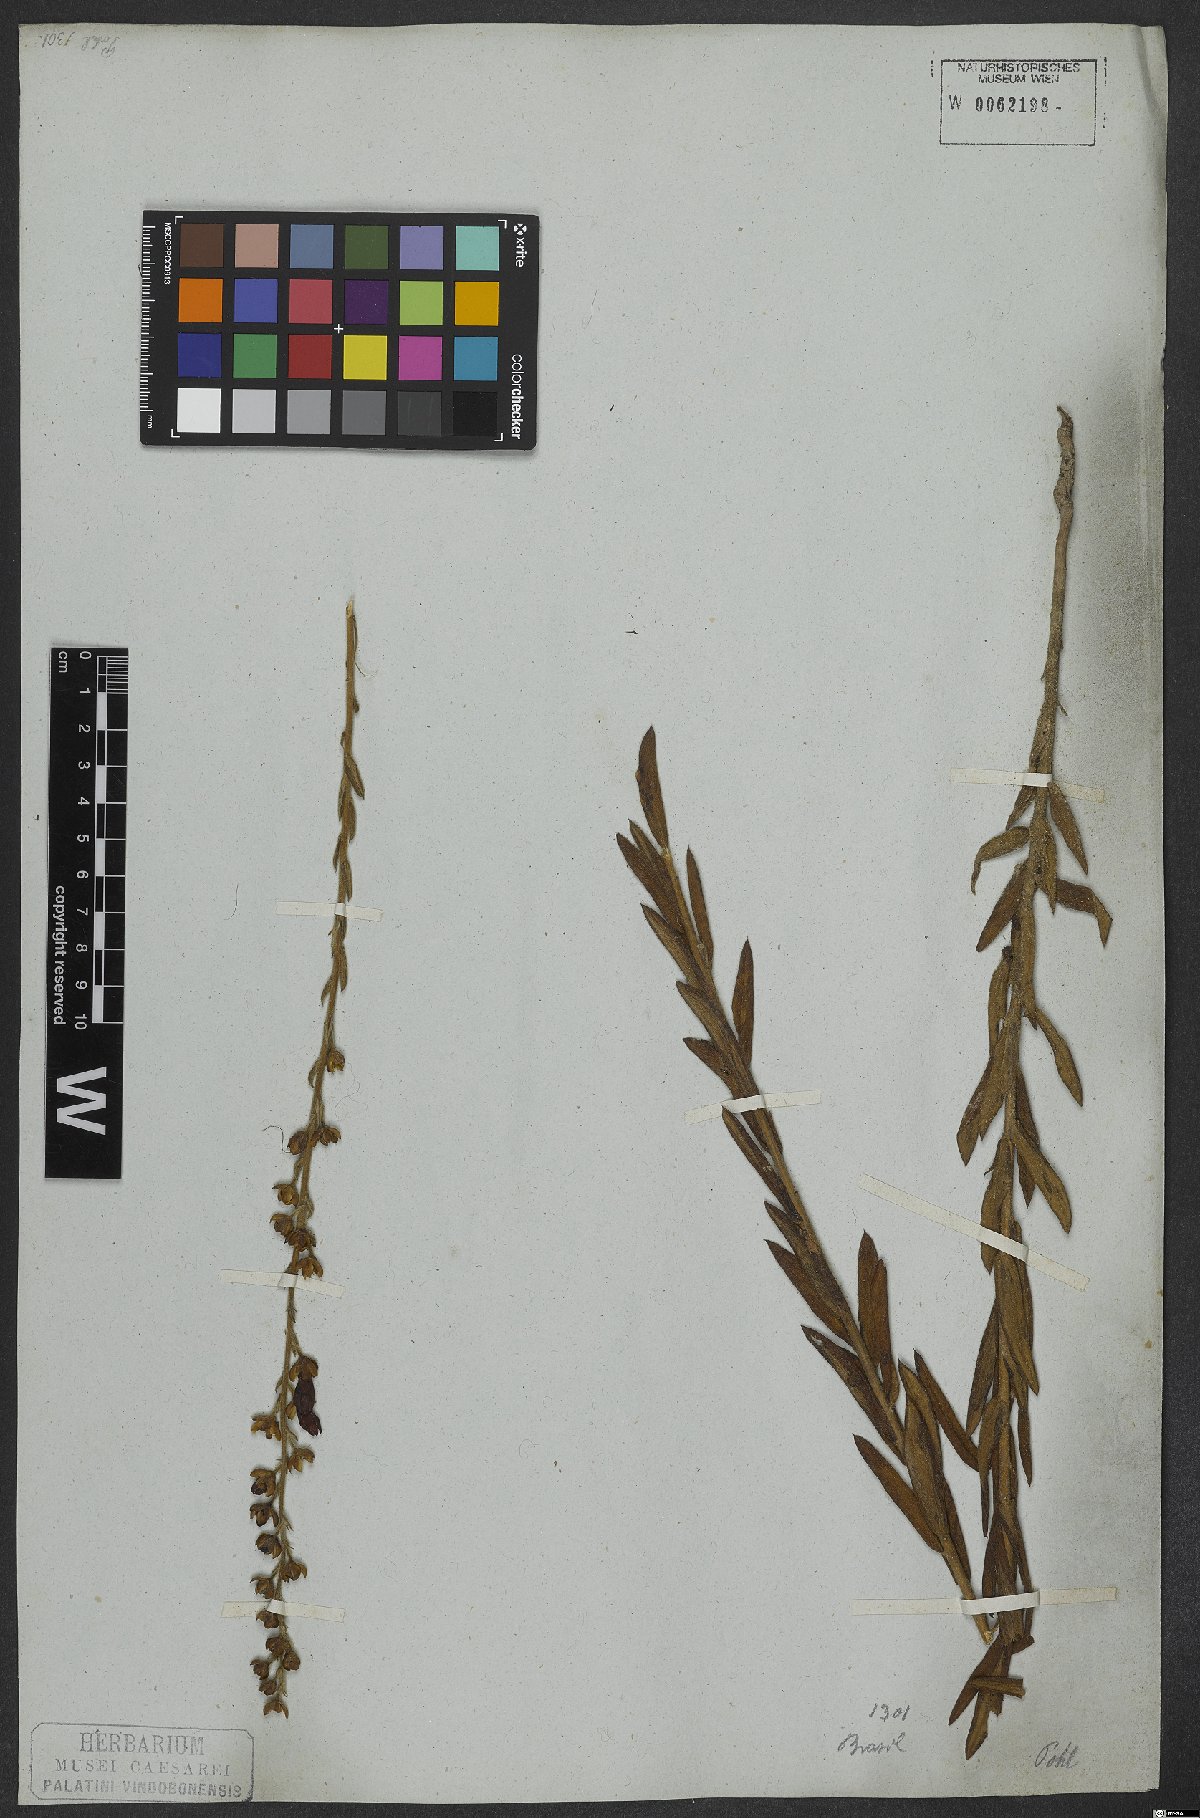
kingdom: Plantae
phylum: Tracheophyta
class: Magnoliopsida
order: Solanales
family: Convolvulaceae
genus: Ipomoea
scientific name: Ipomoea paulistana
